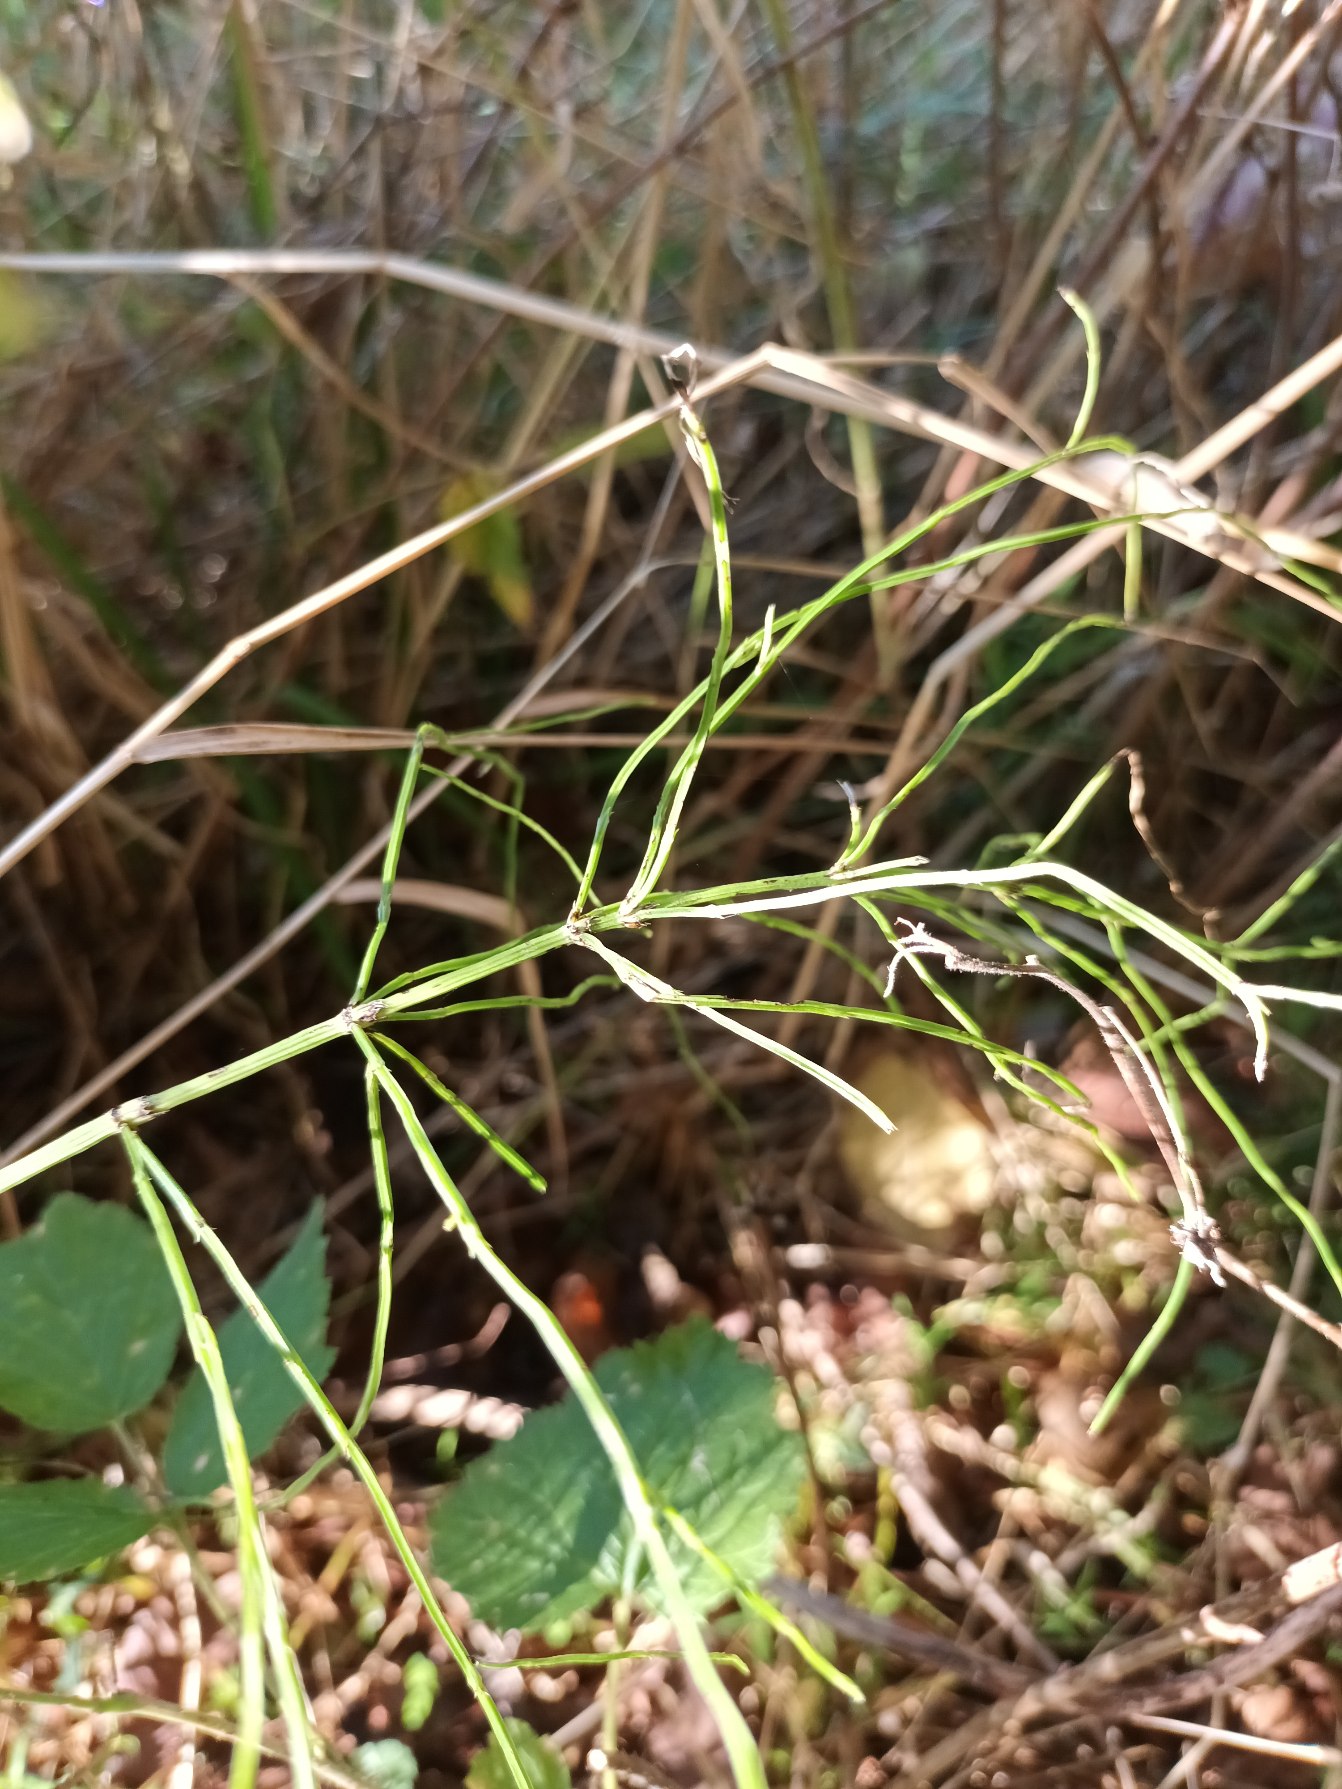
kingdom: Plantae
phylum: Tracheophyta
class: Polypodiopsida
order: Equisetales
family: Equisetaceae
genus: Equisetum
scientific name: Equisetum arvense
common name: Ager-padderok
